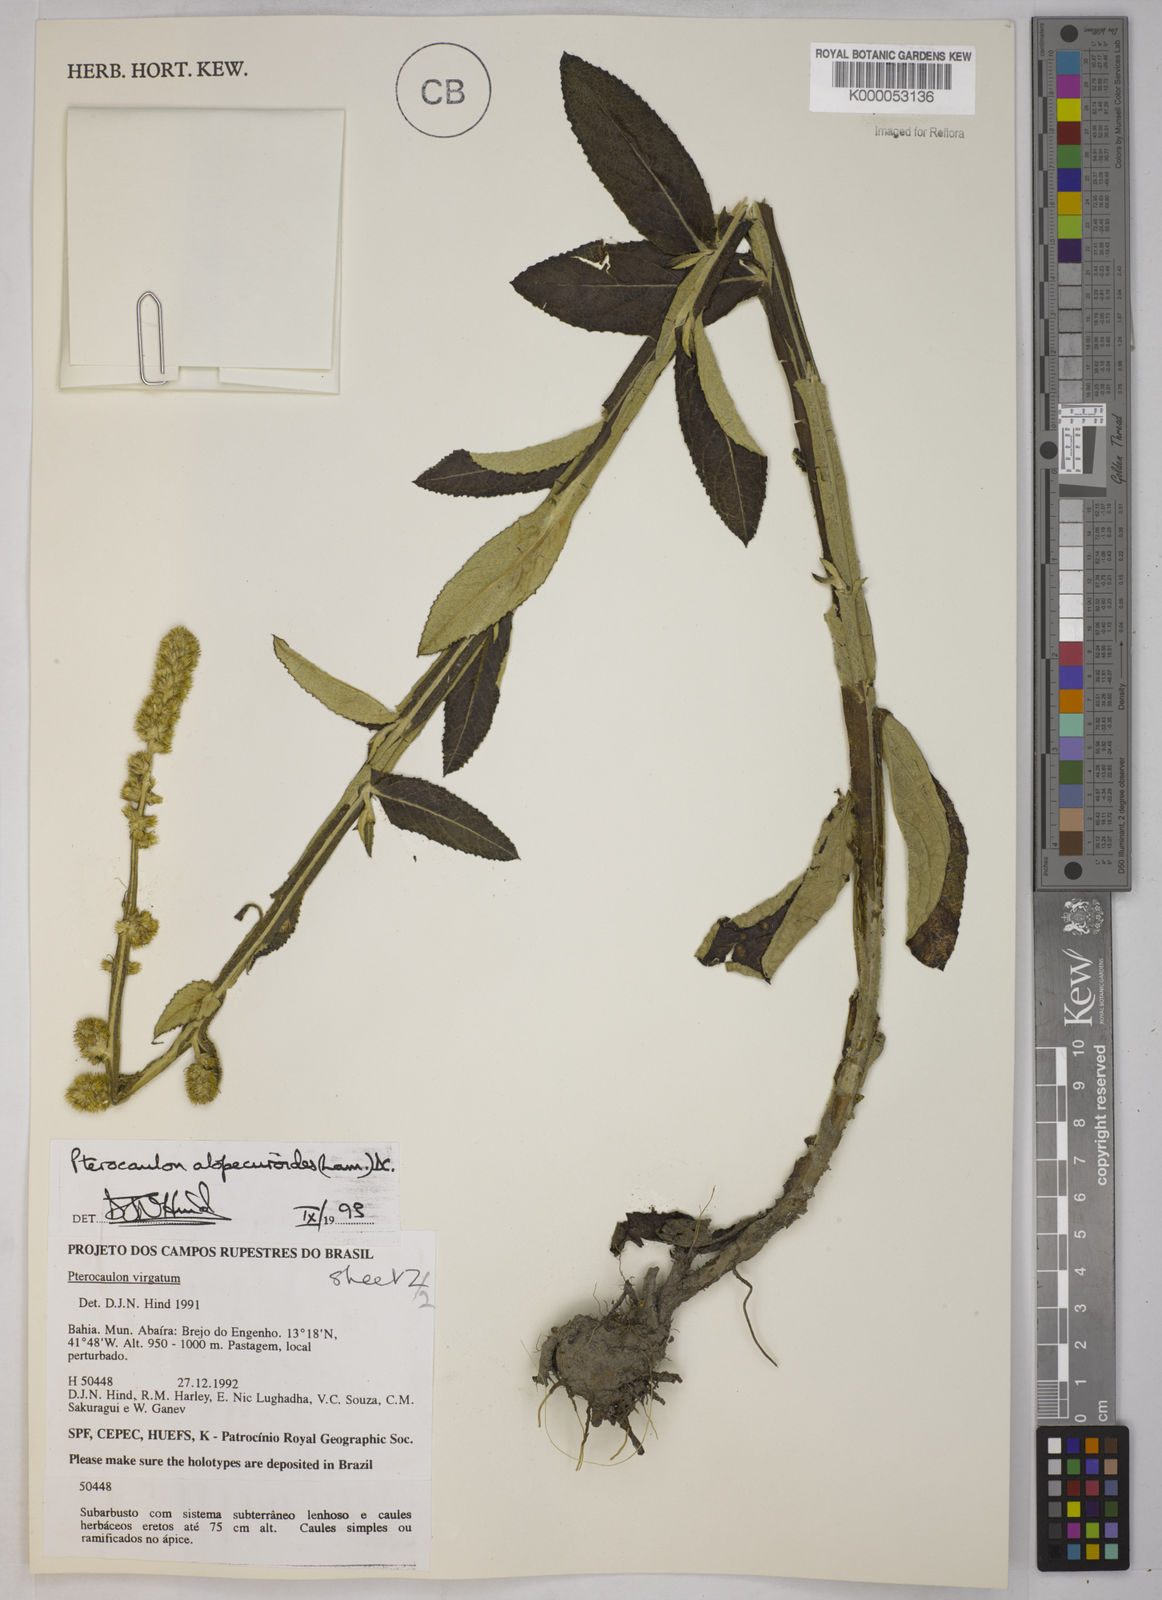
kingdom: Plantae
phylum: Tracheophyta
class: Magnoliopsida
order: Asterales
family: Asteraceae
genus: Pterocaulon
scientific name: Pterocaulon alopecuroides
